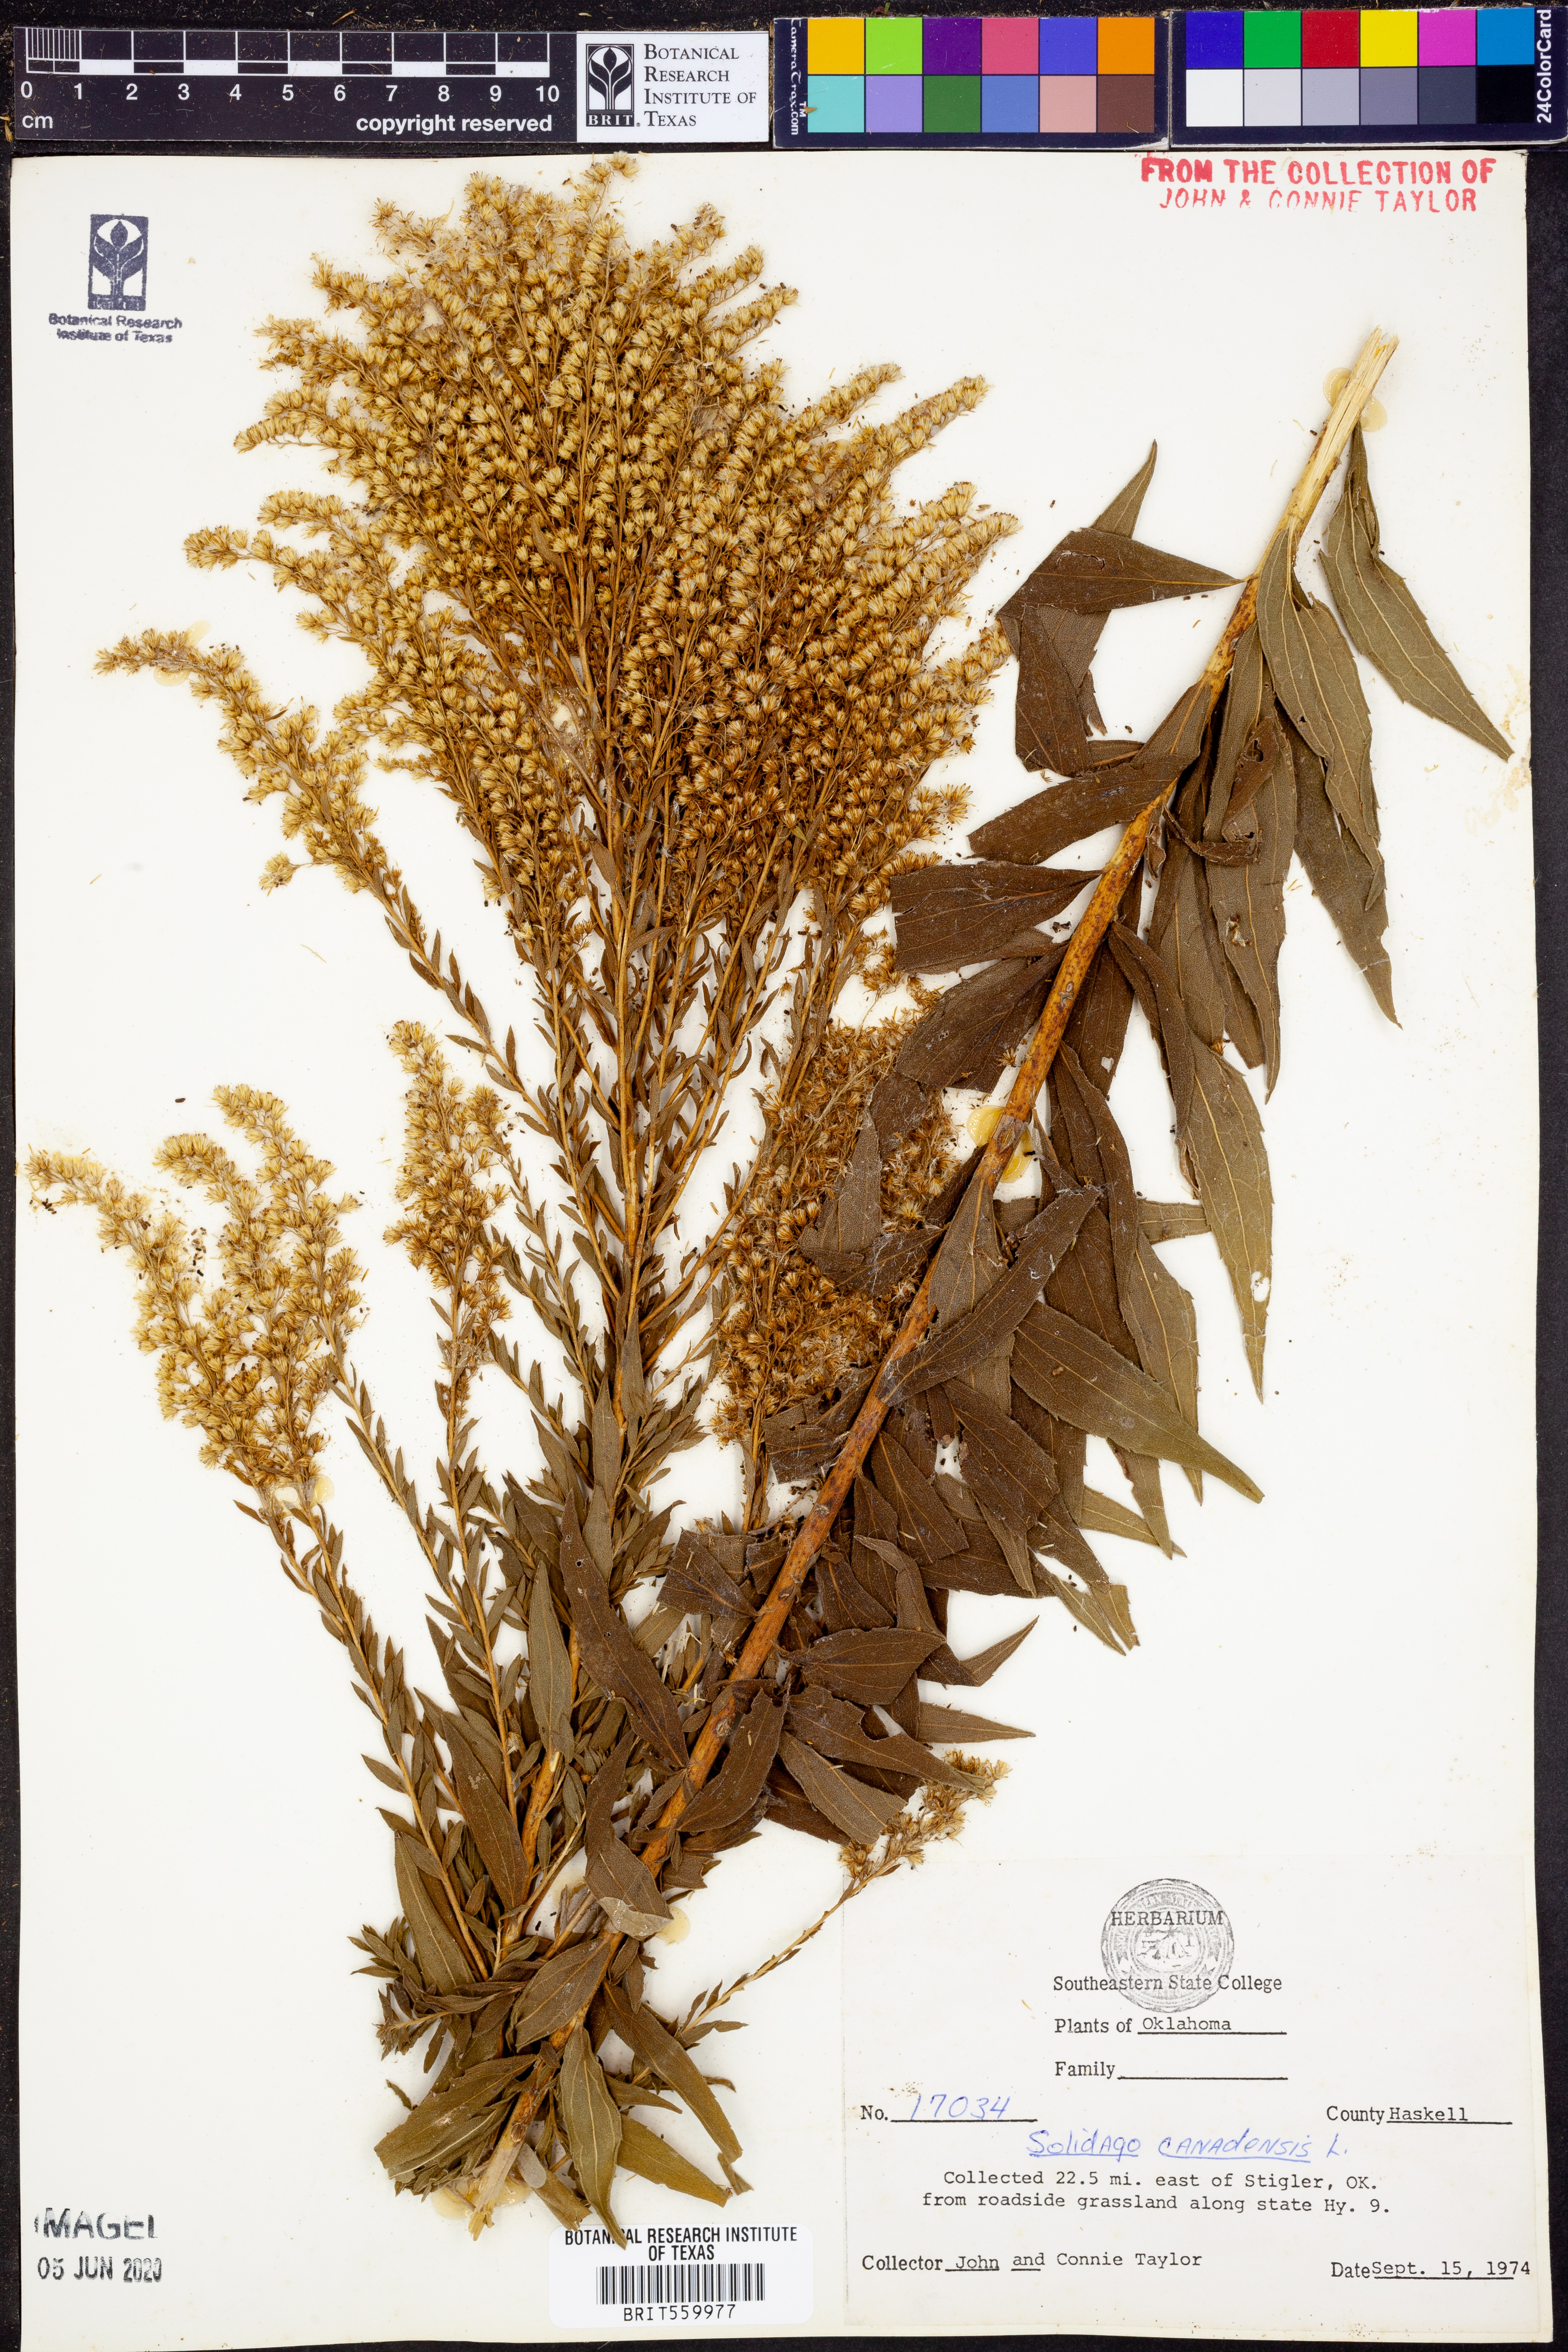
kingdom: Plantae
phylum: Tracheophyta
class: Magnoliopsida
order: Asterales
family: Asteraceae
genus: Solidago
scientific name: Solidago canadensis
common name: Canada goldenrod
